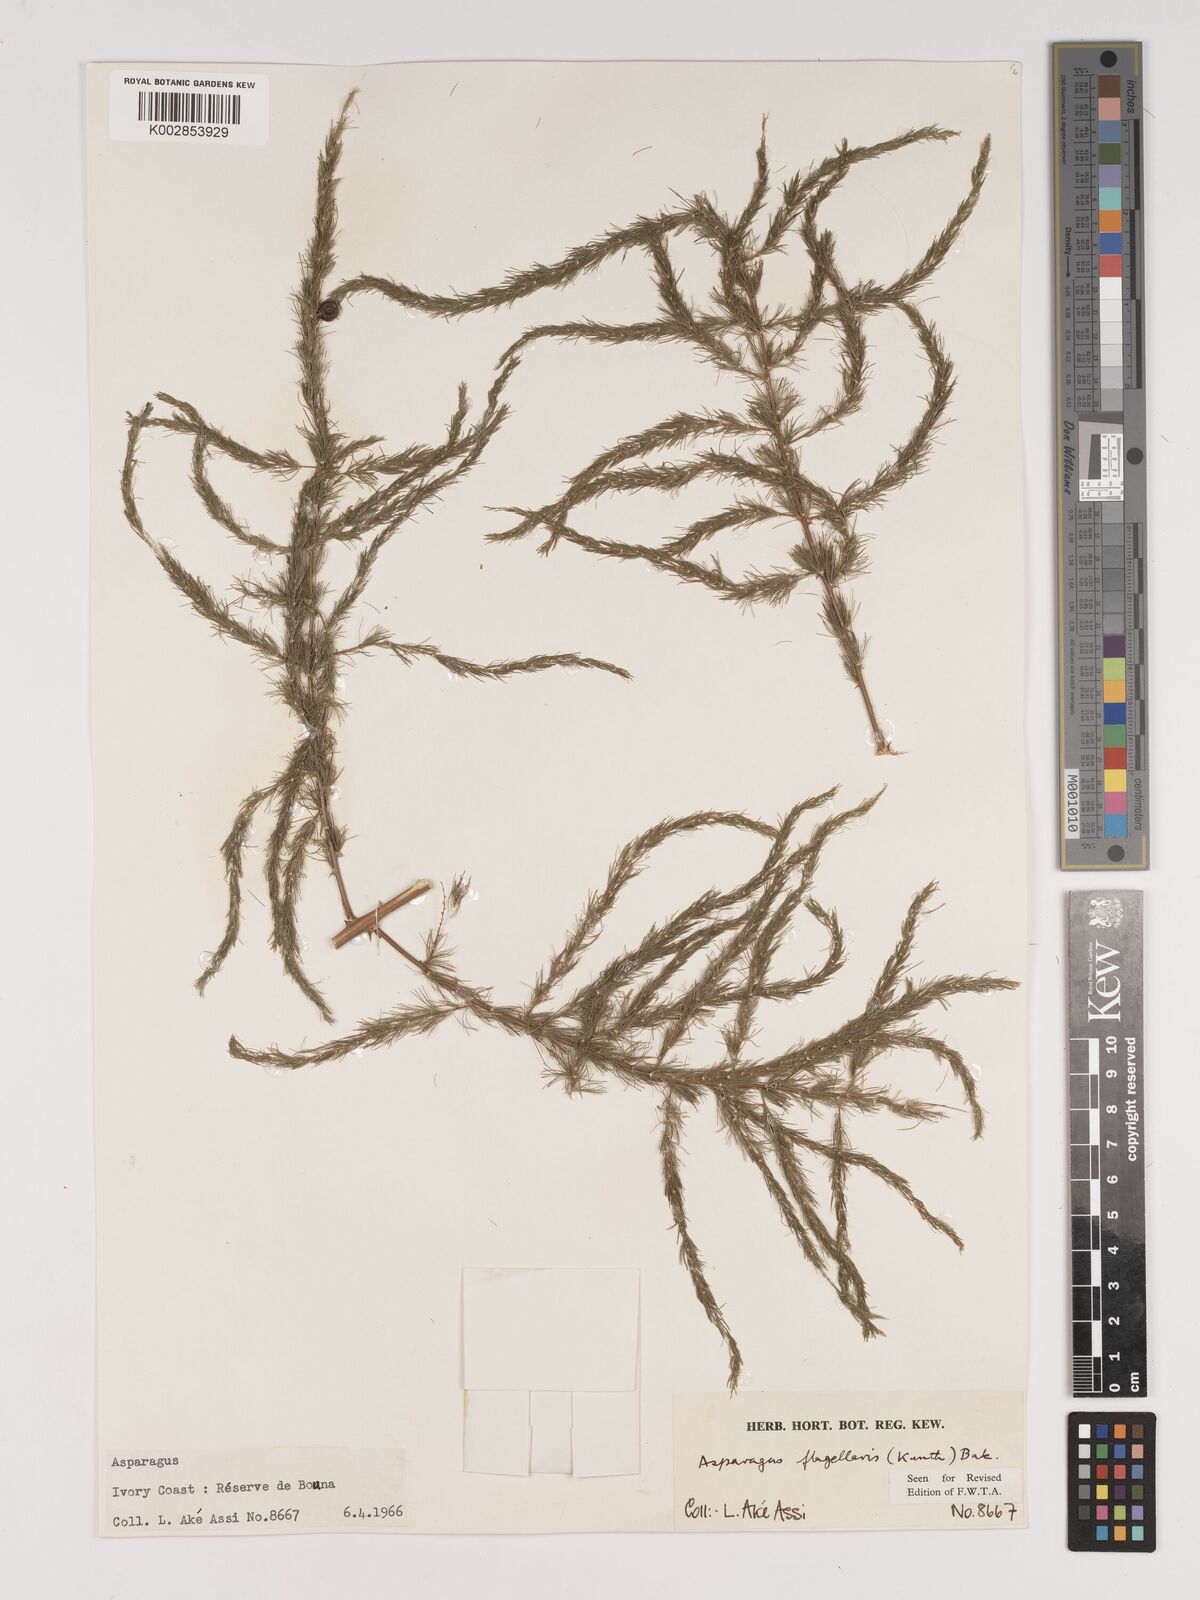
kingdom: Plantae
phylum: Tracheophyta
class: Liliopsida
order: Asparagales
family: Asparagaceae
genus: Asparagus
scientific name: Asparagus flagellaris
